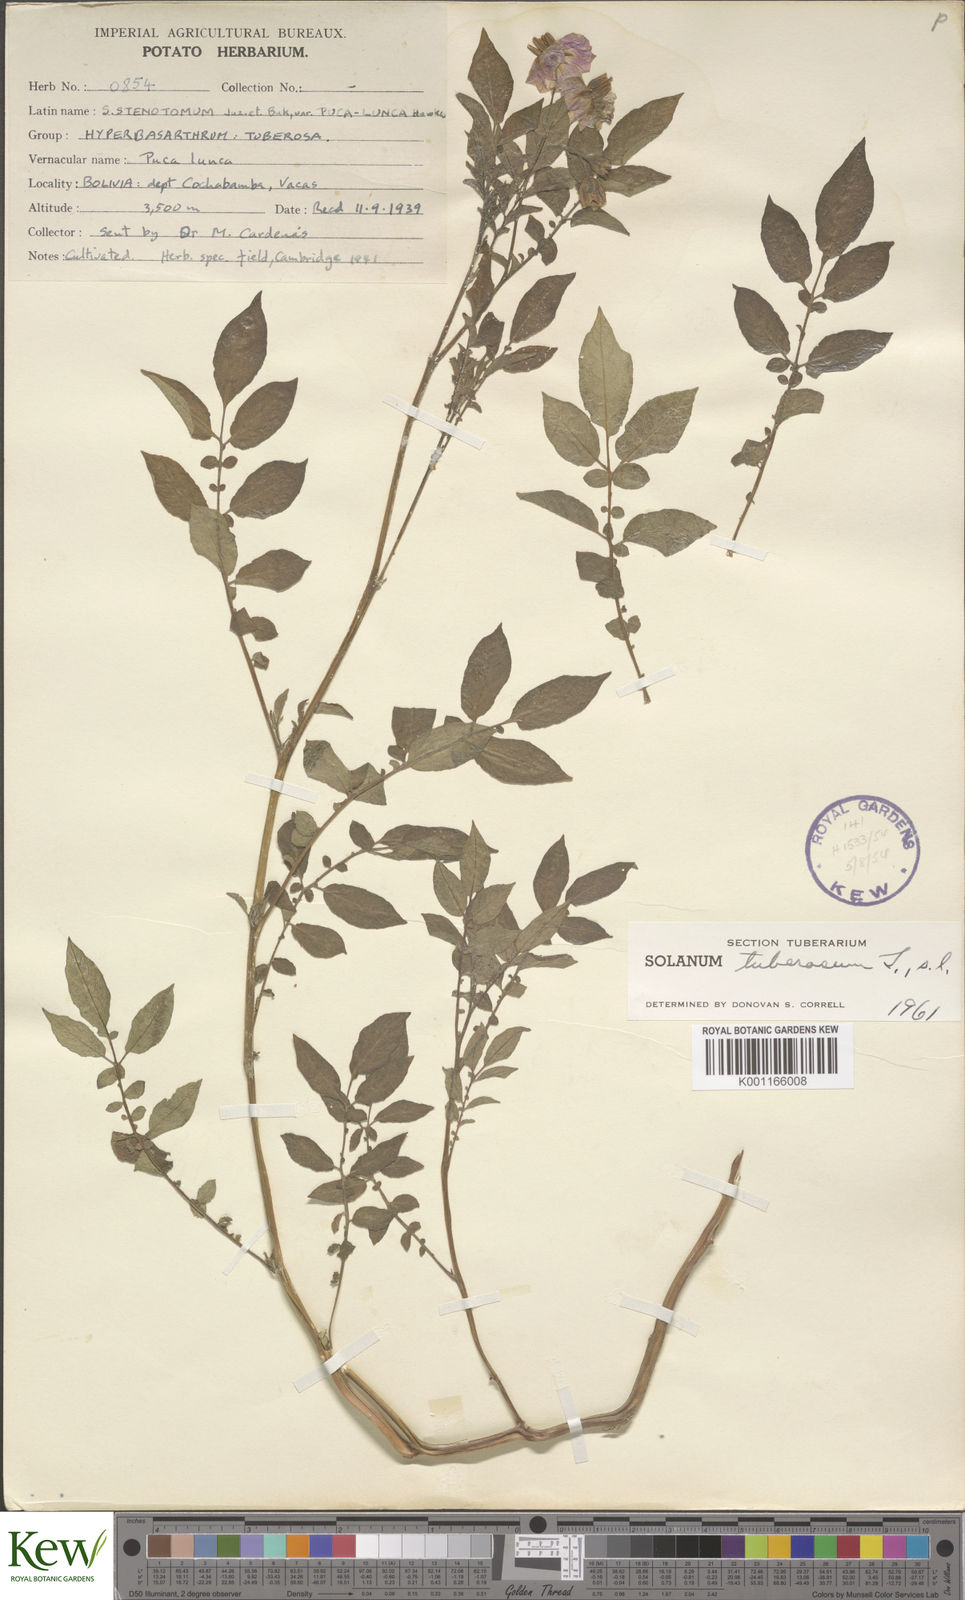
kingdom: Plantae
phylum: Tracheophyta
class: Magnoliopsida
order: Solanales
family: Solanaceae
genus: Solanum
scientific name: Solanum tuberosum
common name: Potato
